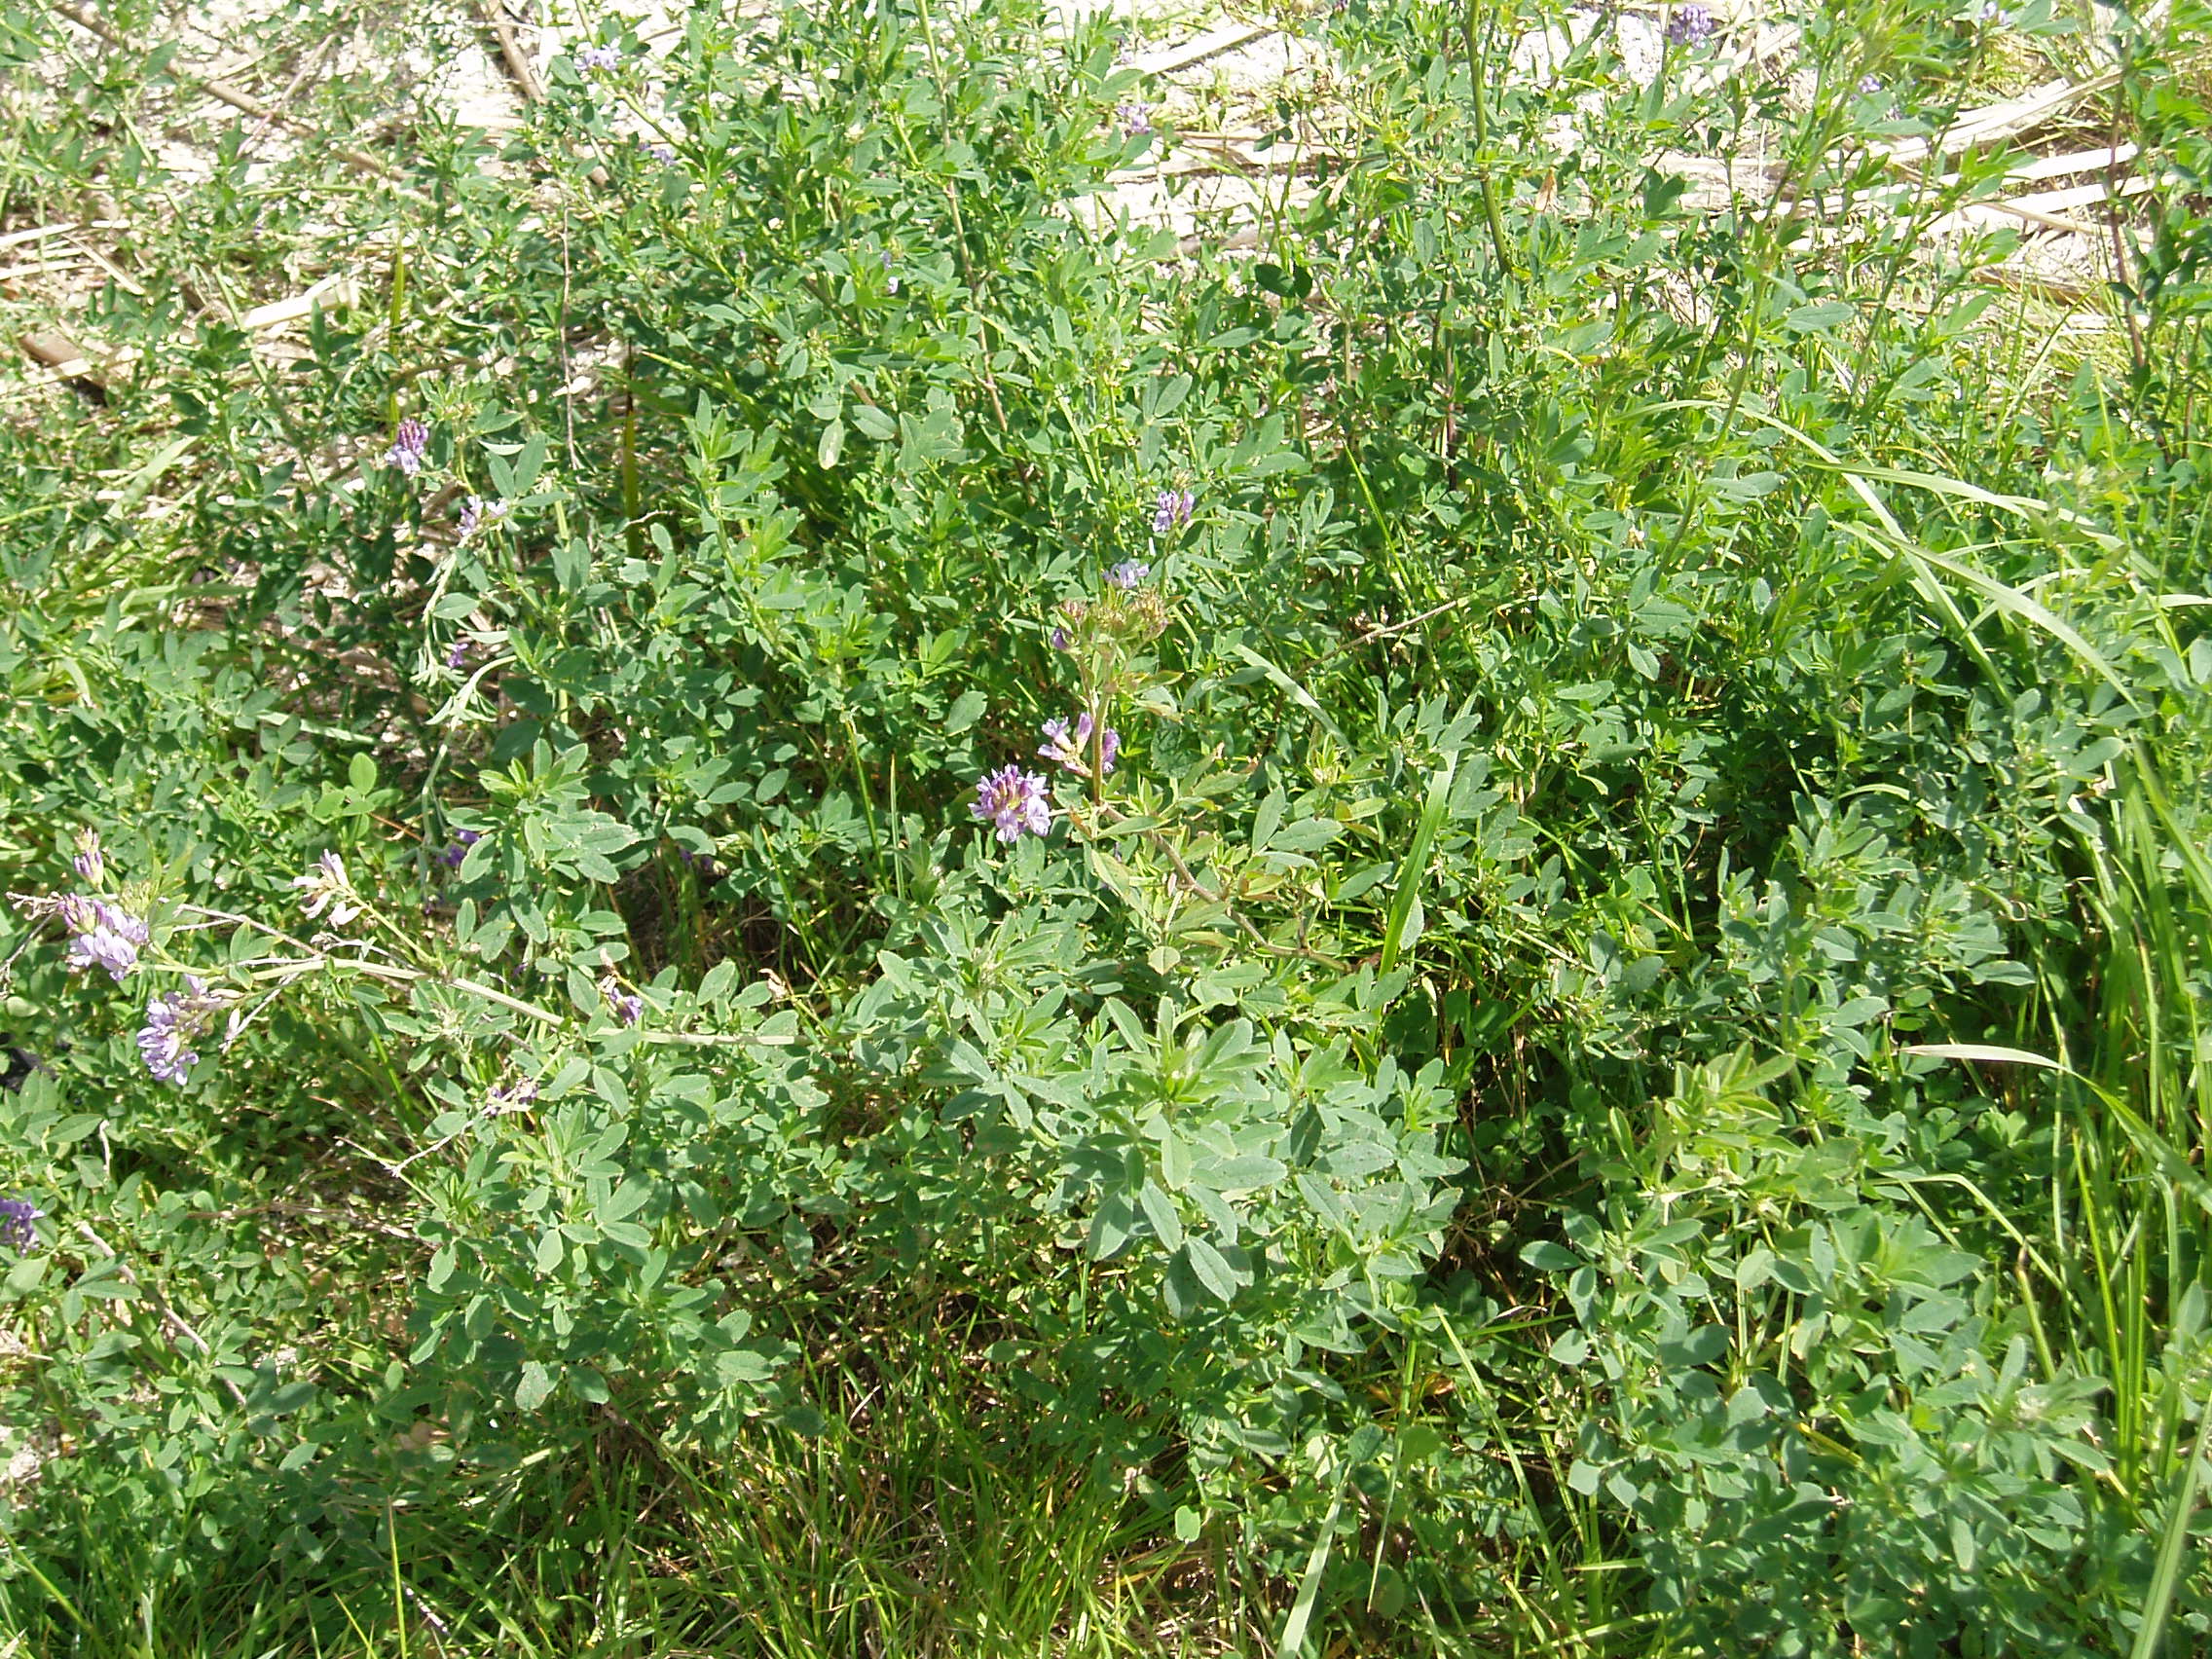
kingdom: Plantae
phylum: Tracheophyta
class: Magnoliopsida
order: Fabales
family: Fabaceae
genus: Medicago
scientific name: Medicago sativa
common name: Alfalfa
